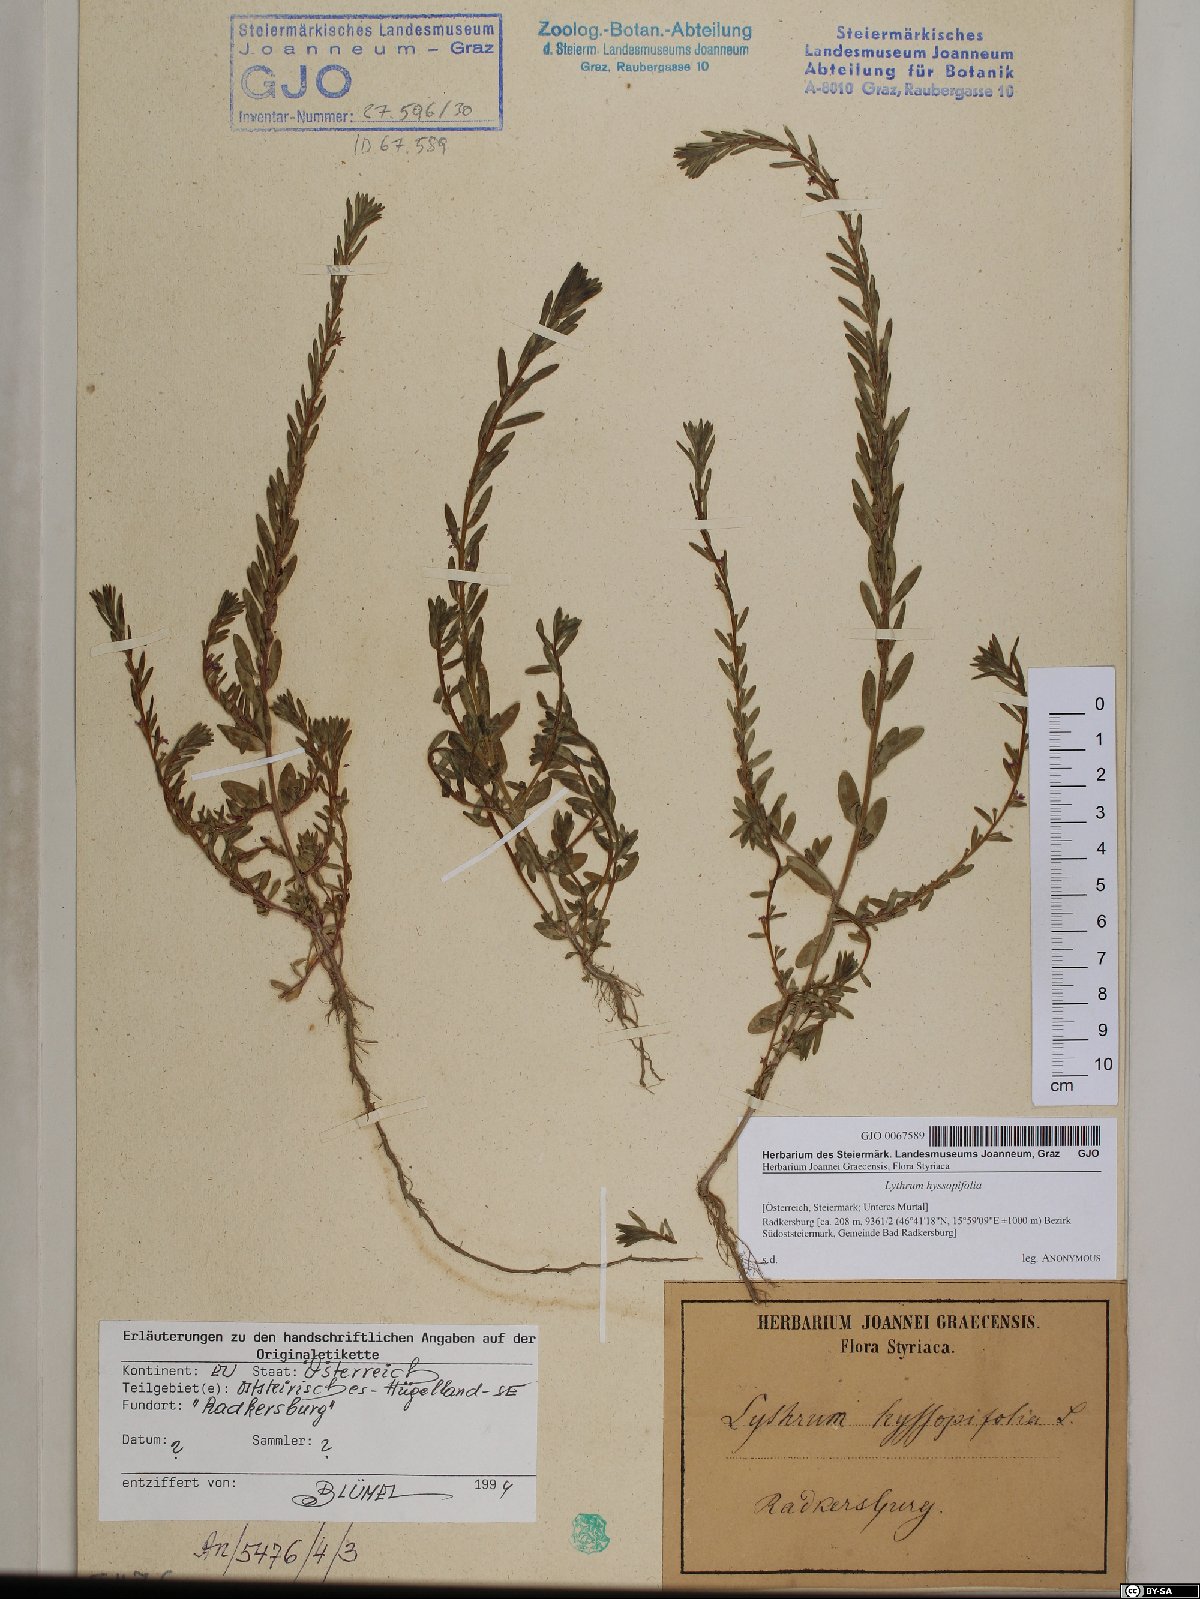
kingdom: Plantae
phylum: Tracheophyta
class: Magnoliopsida
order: Myrtales
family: Lythraceae
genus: Lythrum
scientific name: Lythrum hyssopifolia
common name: Grass-poly
